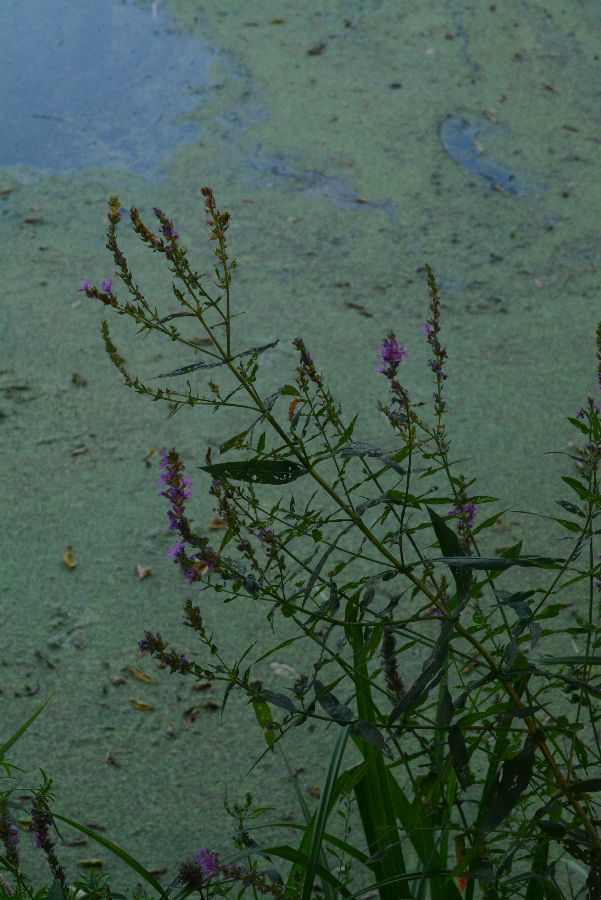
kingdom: Plantae
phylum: Tracheophyta
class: Magnoliopsida
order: Myrtales
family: Lythraceae
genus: Lythrum
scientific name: Lythrum salicaria
